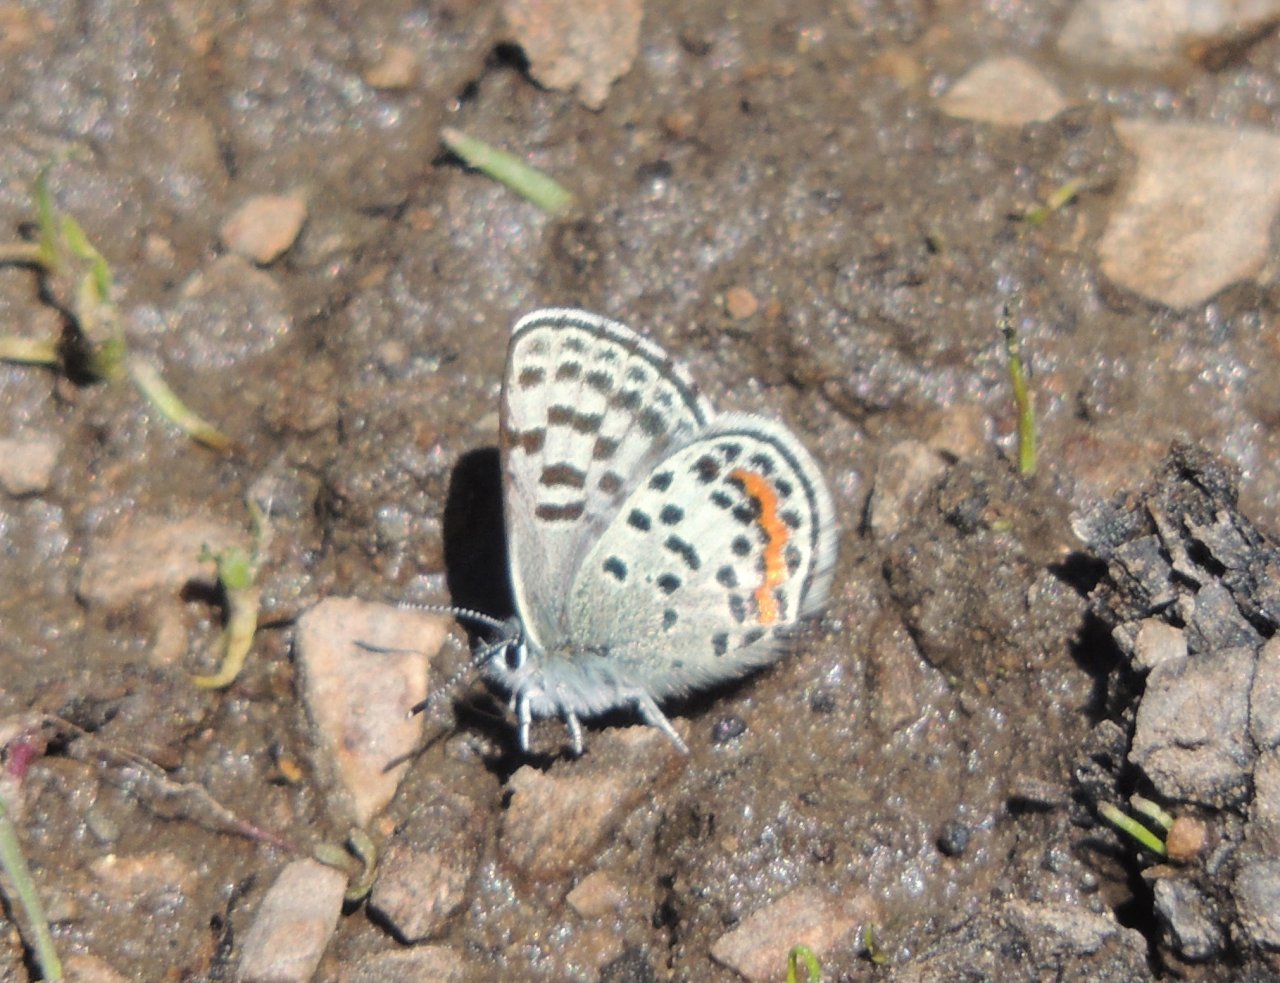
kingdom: Animalia
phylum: Arthropoda
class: Insecta
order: Lepidoptera
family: Lycaenidae
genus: Euphilotes
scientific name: Euphilotes battoides
